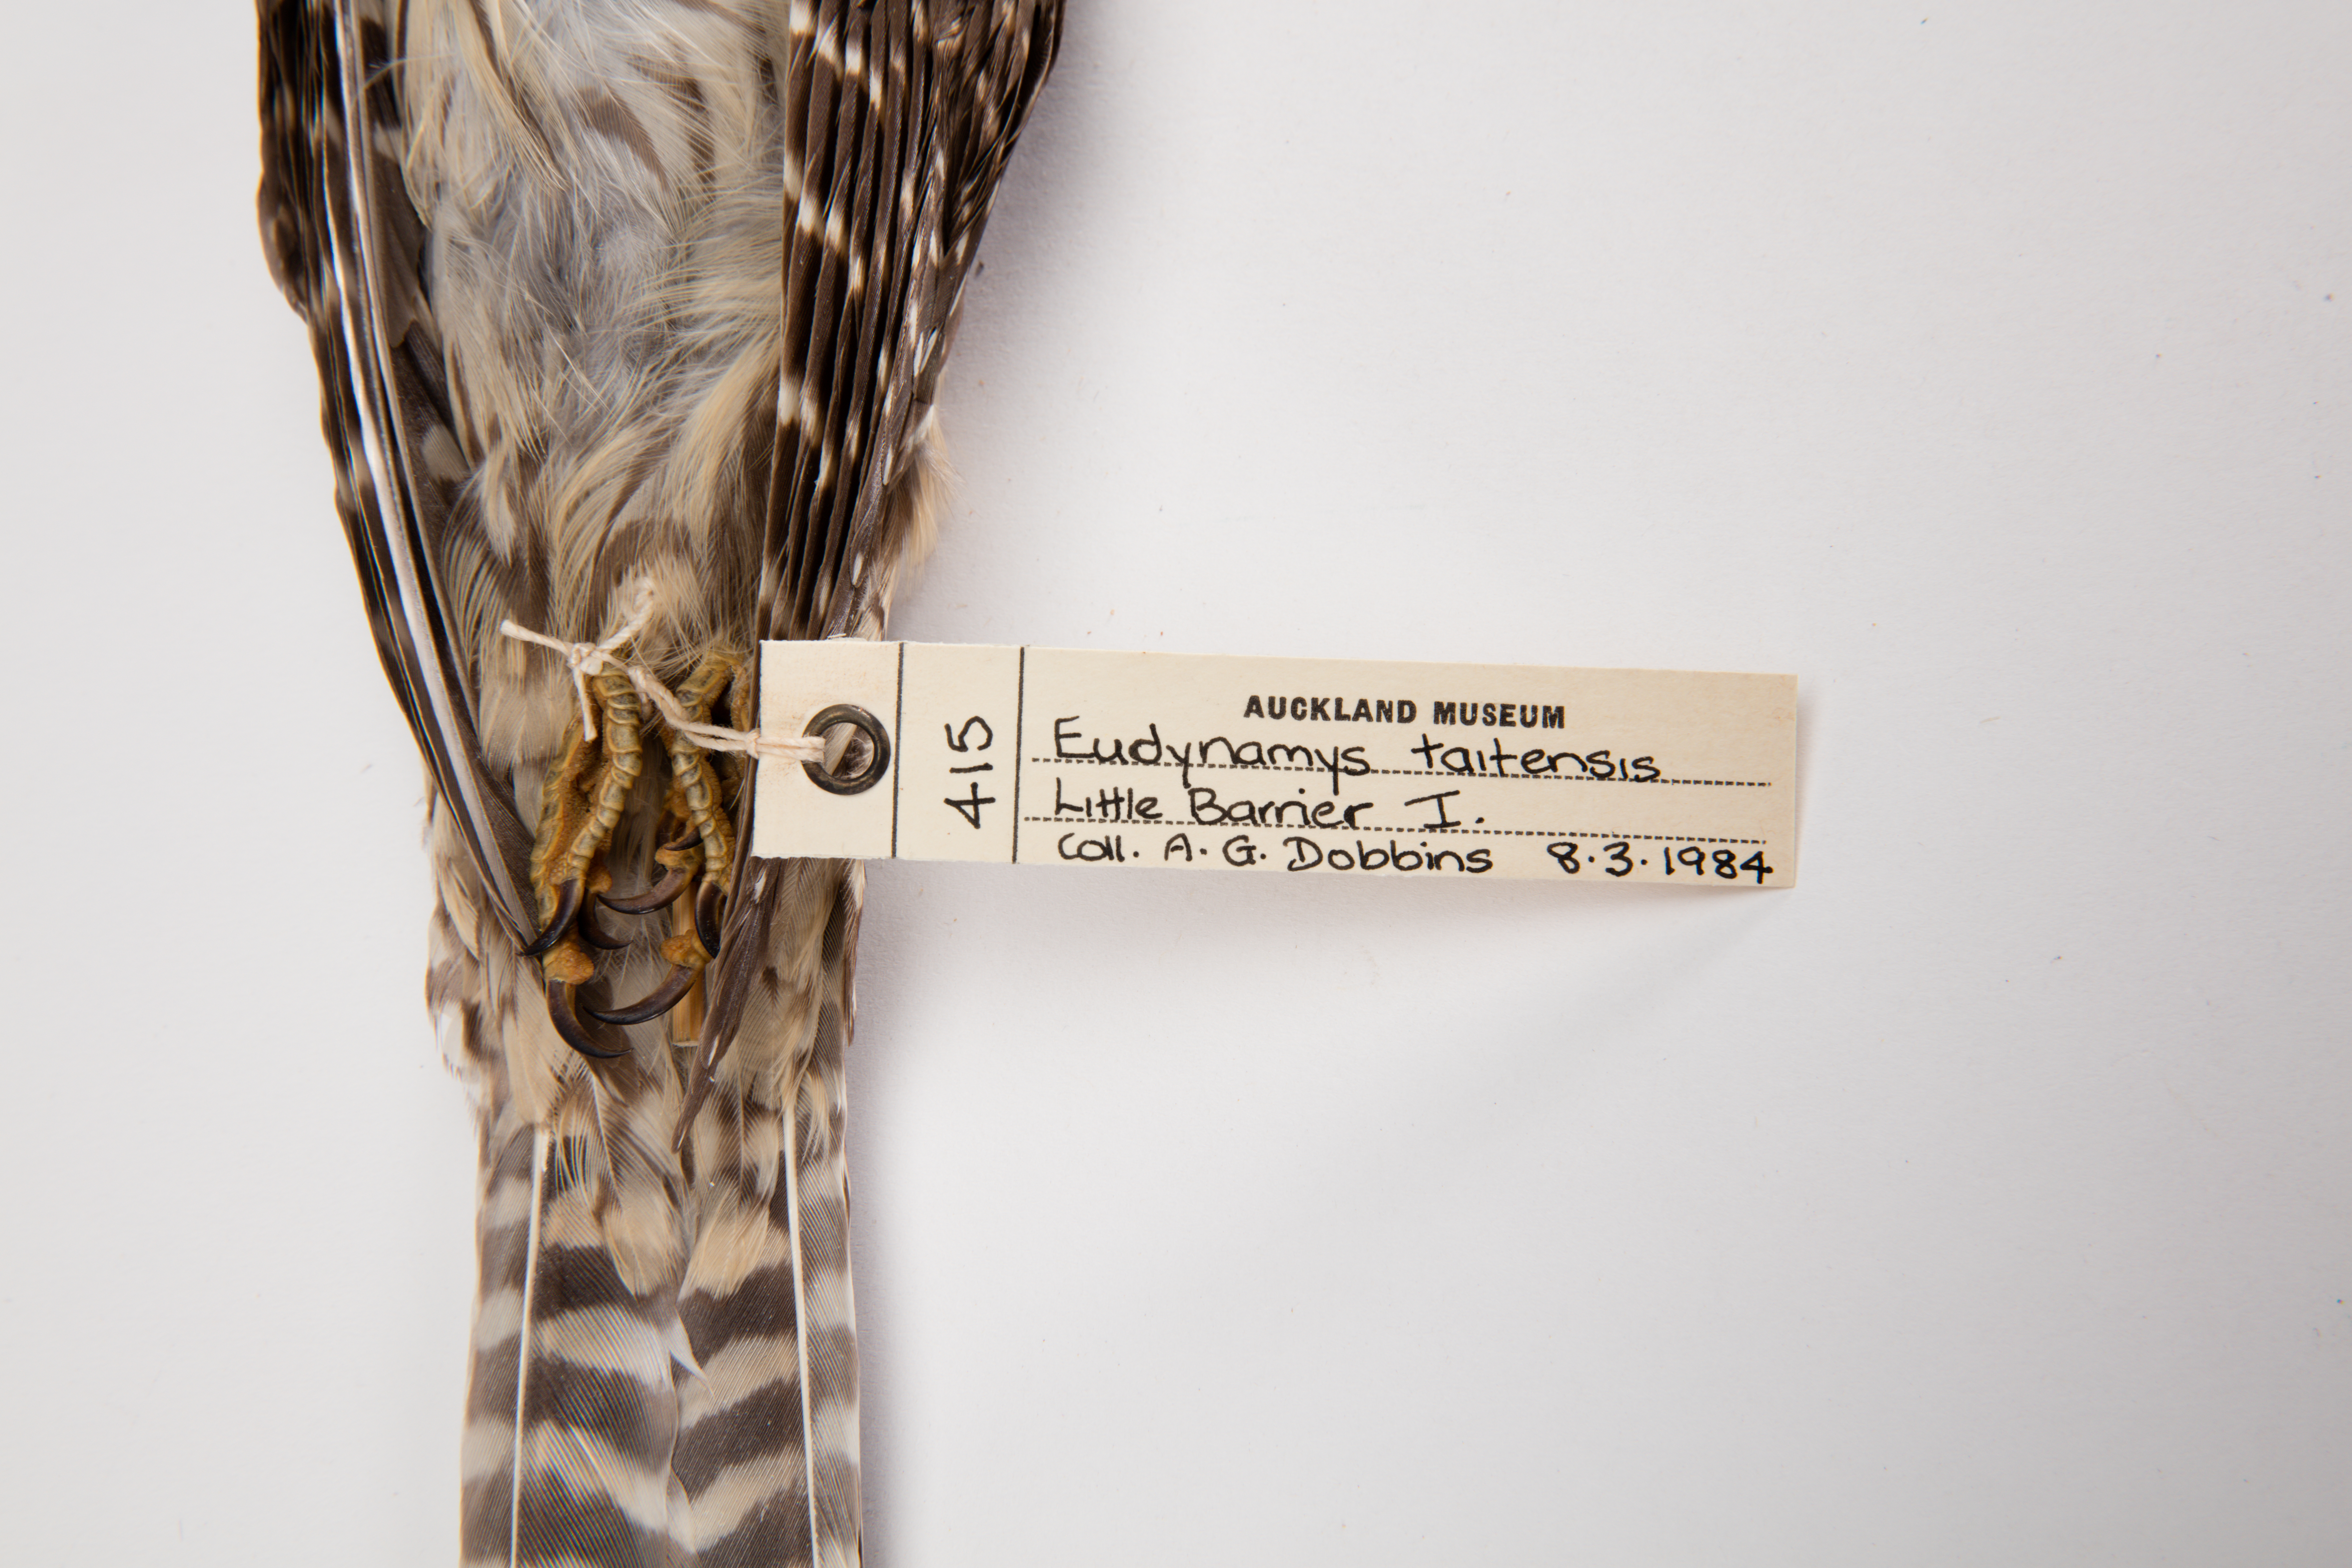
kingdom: Animalia
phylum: Chordata
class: Aves
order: Cuculiformes
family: Cuculidae
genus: Urodynamis
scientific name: Urodynamis taitensis
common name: Long-tailed koel
